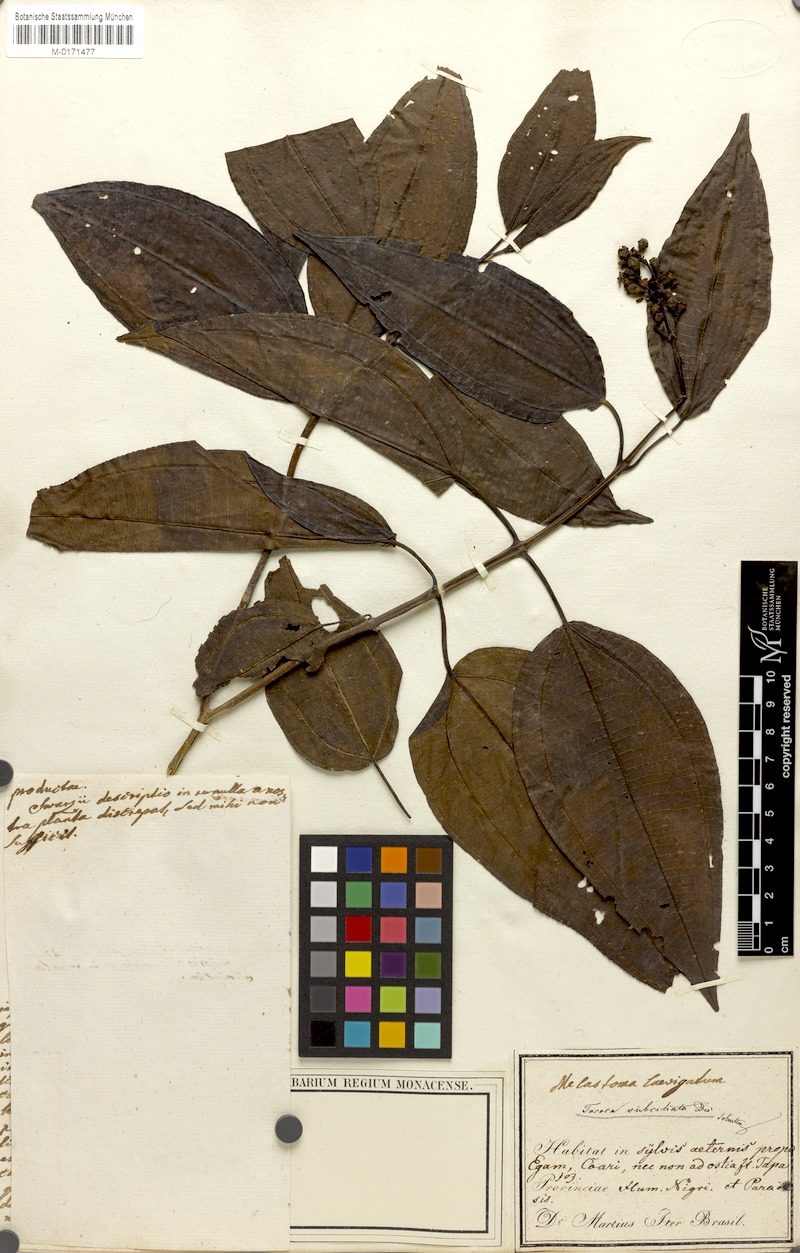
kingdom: Plantae
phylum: Tracheophyta
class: Magnoliopsida
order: Myrtales
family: Melastomataceae
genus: Miconia
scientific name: Miconia subciliata
